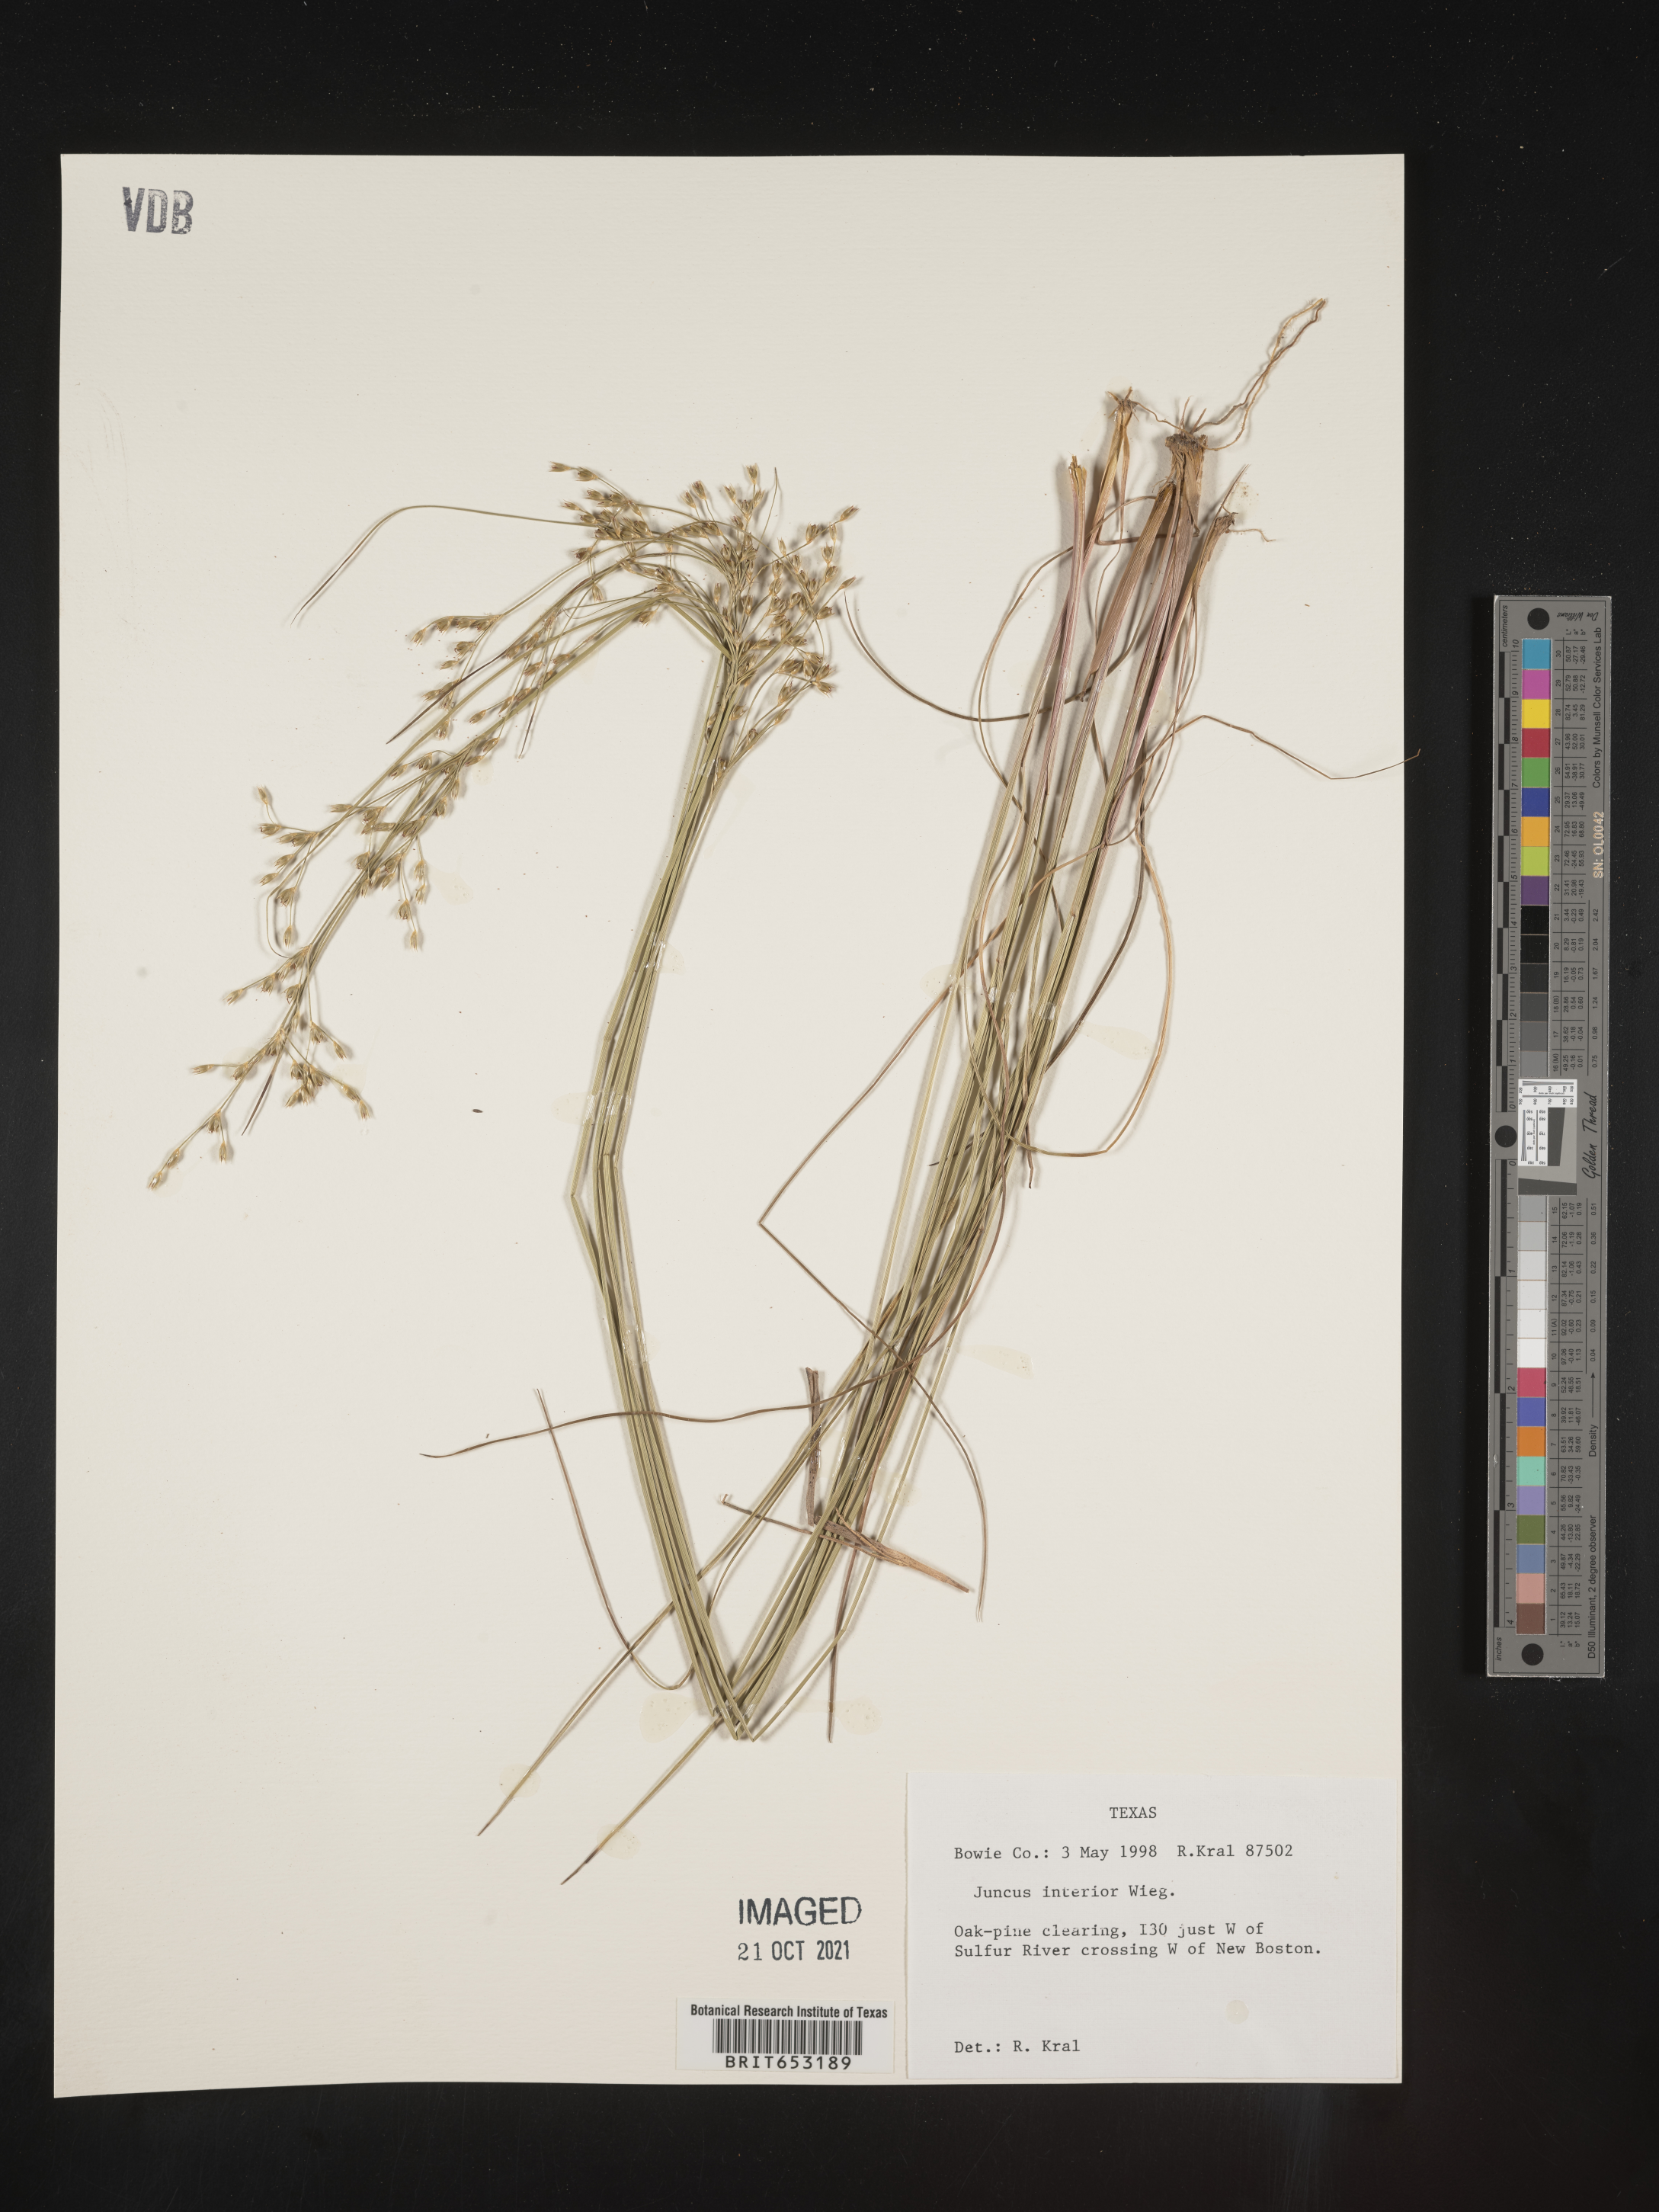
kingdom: Plantae
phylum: Tracheophyta
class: Liliopsida
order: Poales
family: Juncaceae
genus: Juncus
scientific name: Juncus interior
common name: Interior rush
